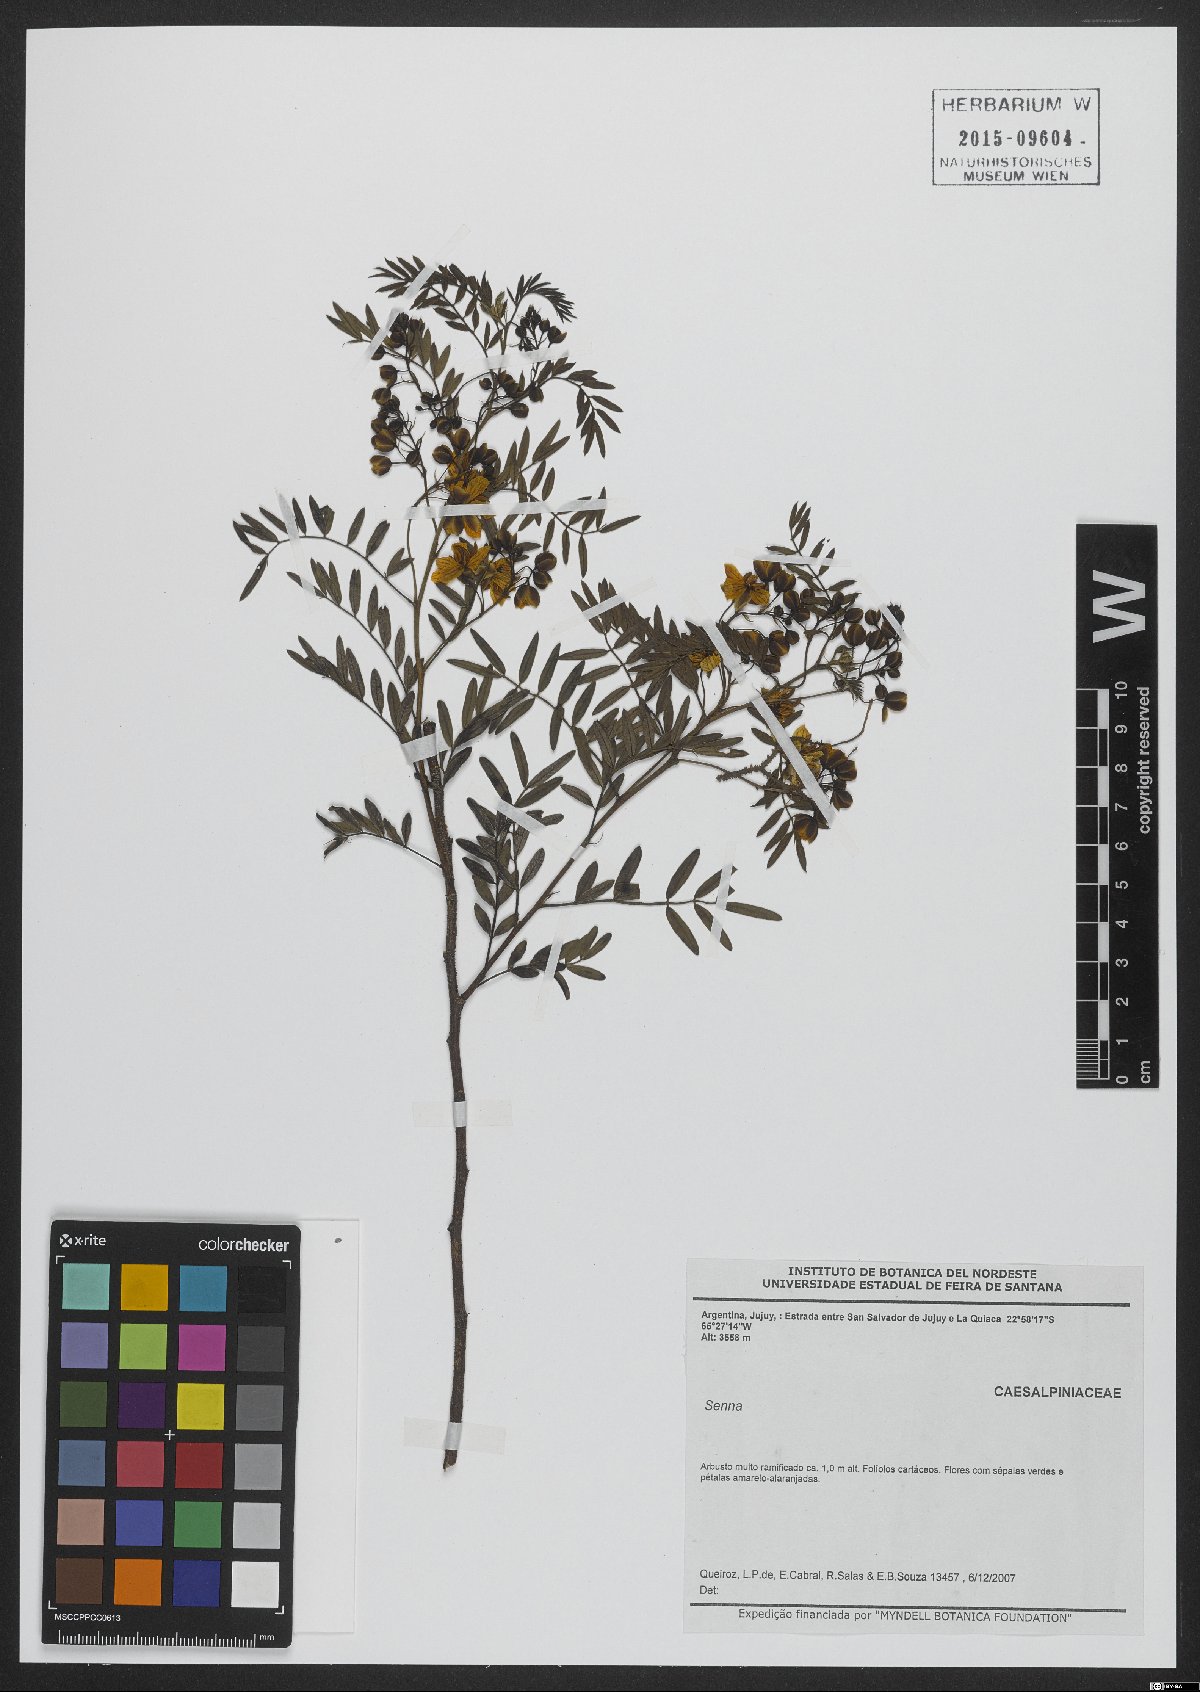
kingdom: Plantae
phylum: Tracheophyta
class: Magnoliopsida
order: Fabales
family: Fabaceae
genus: Senna
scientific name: Senna
